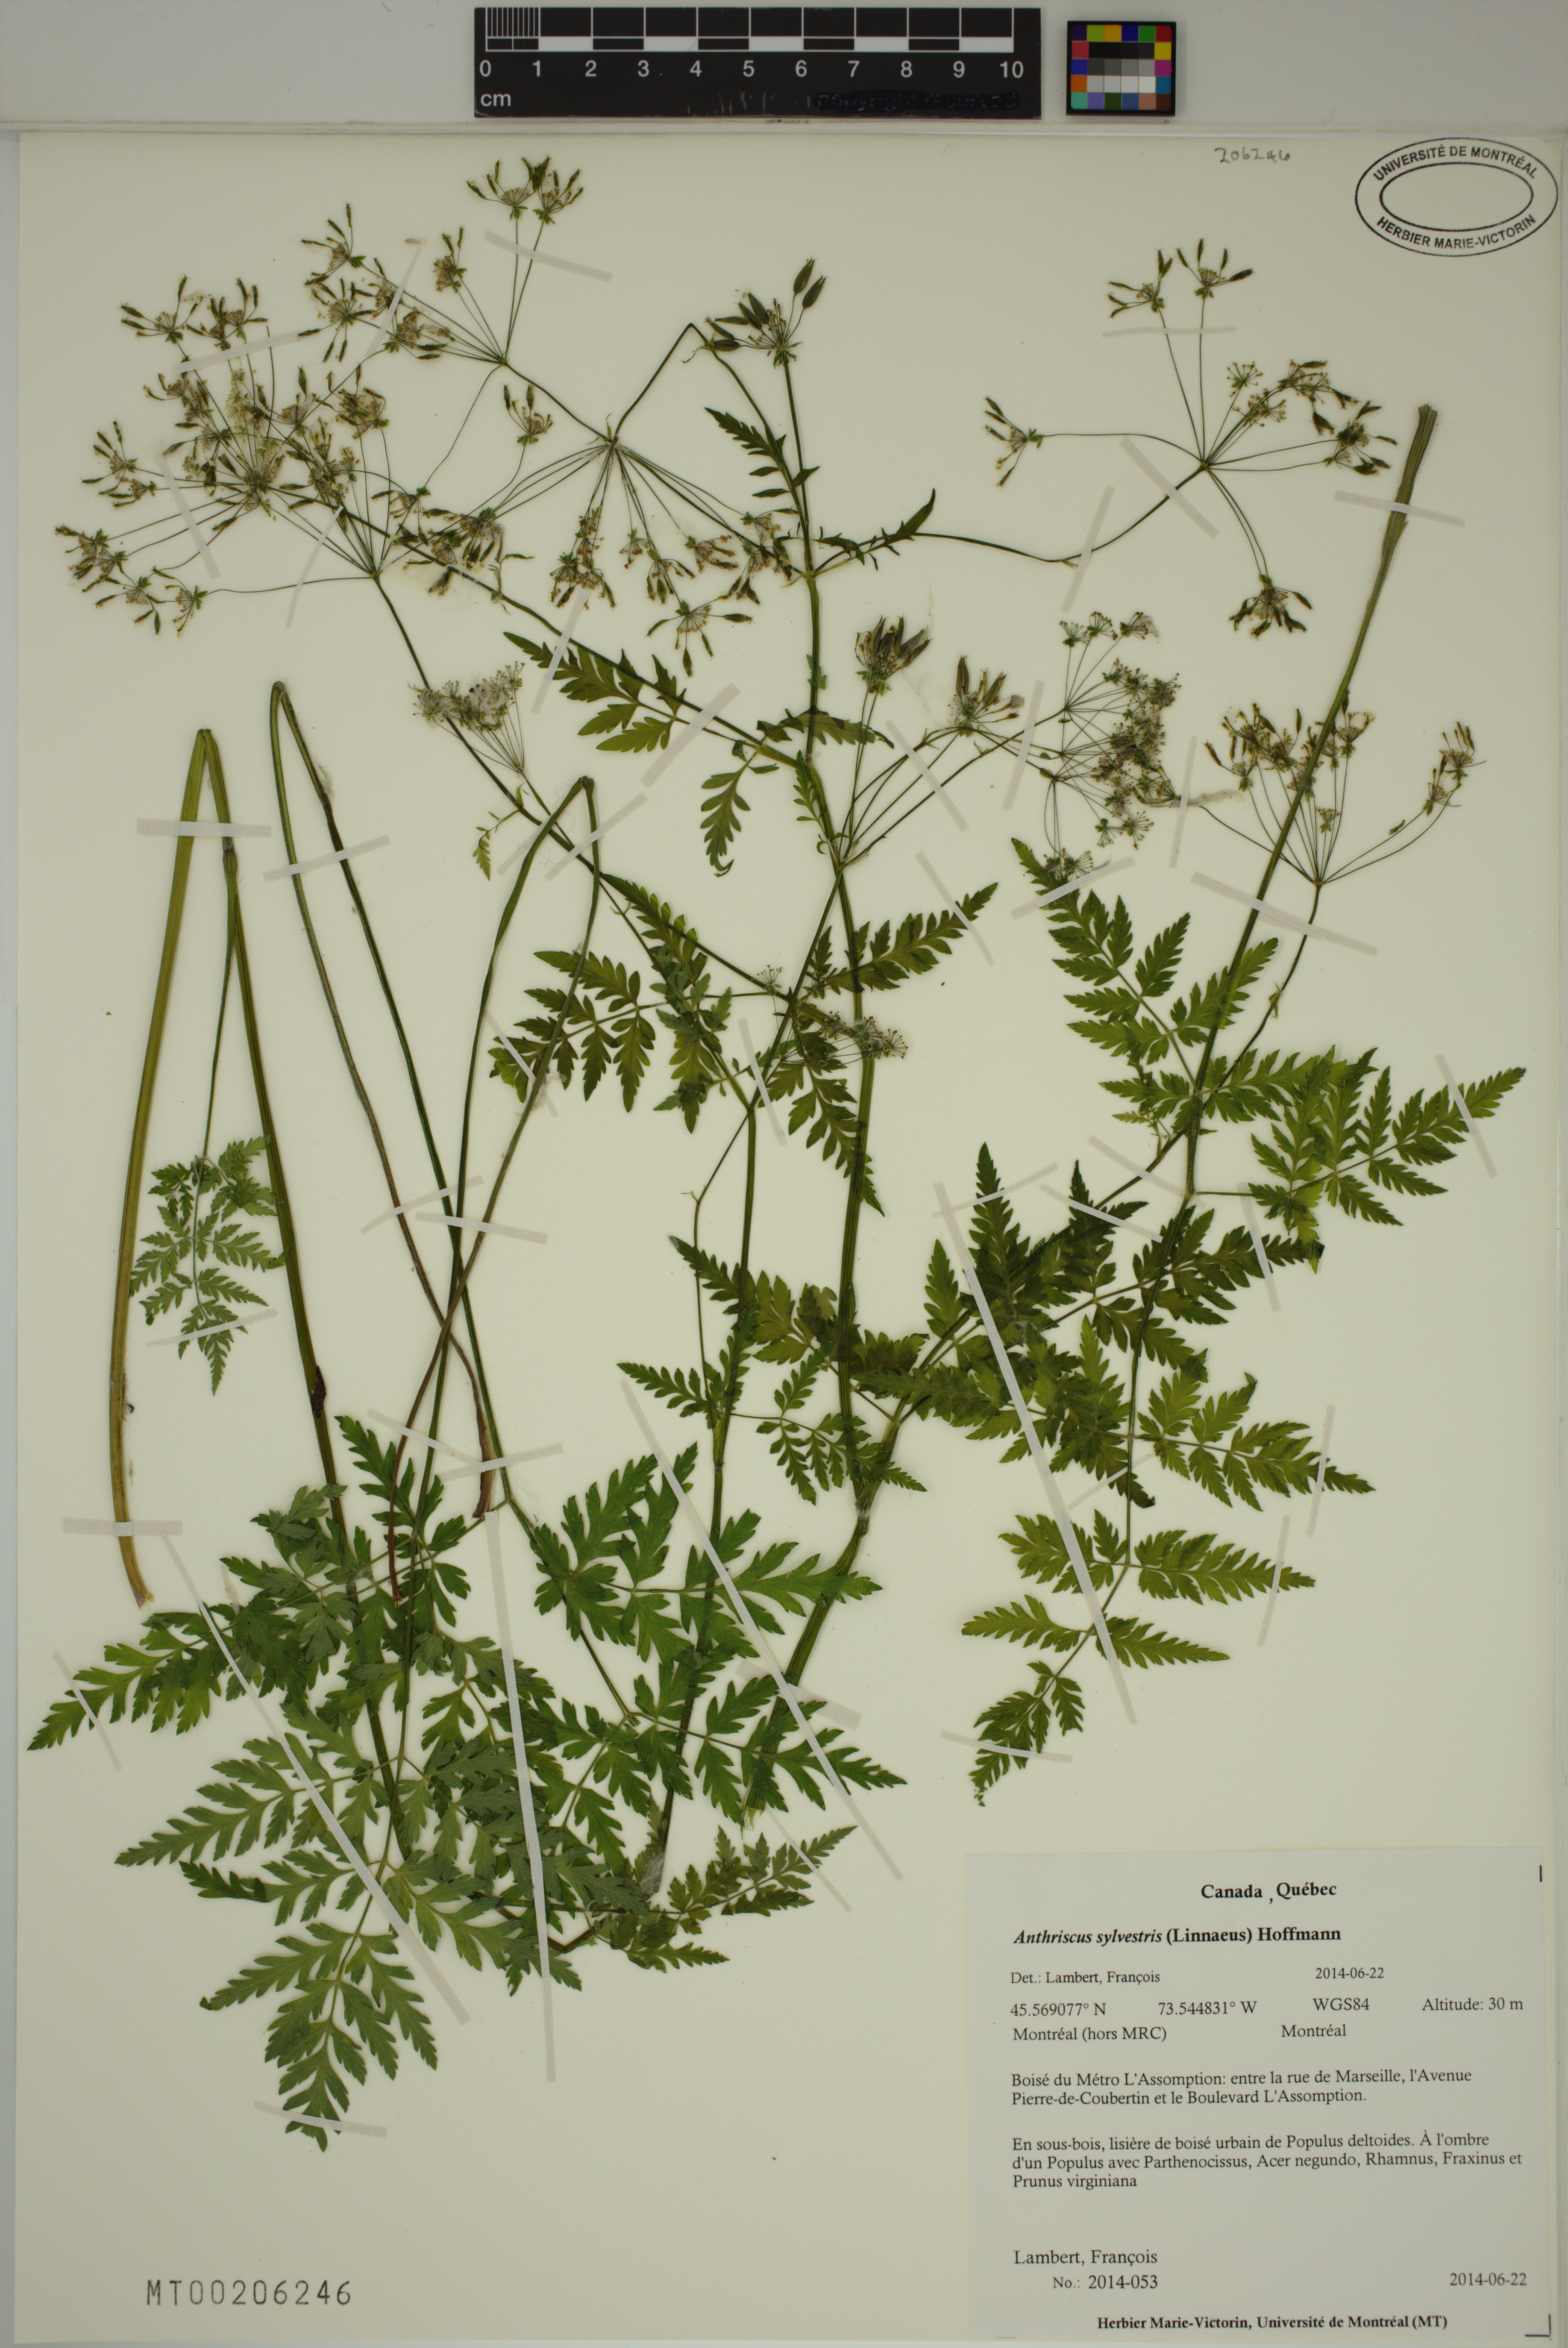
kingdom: Plantae
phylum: Tracheophyta
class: Magnoliopsida
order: Apiales
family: Apiaceae
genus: Anthriscus
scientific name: Anthriscus sylvestris
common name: Cow parsley
